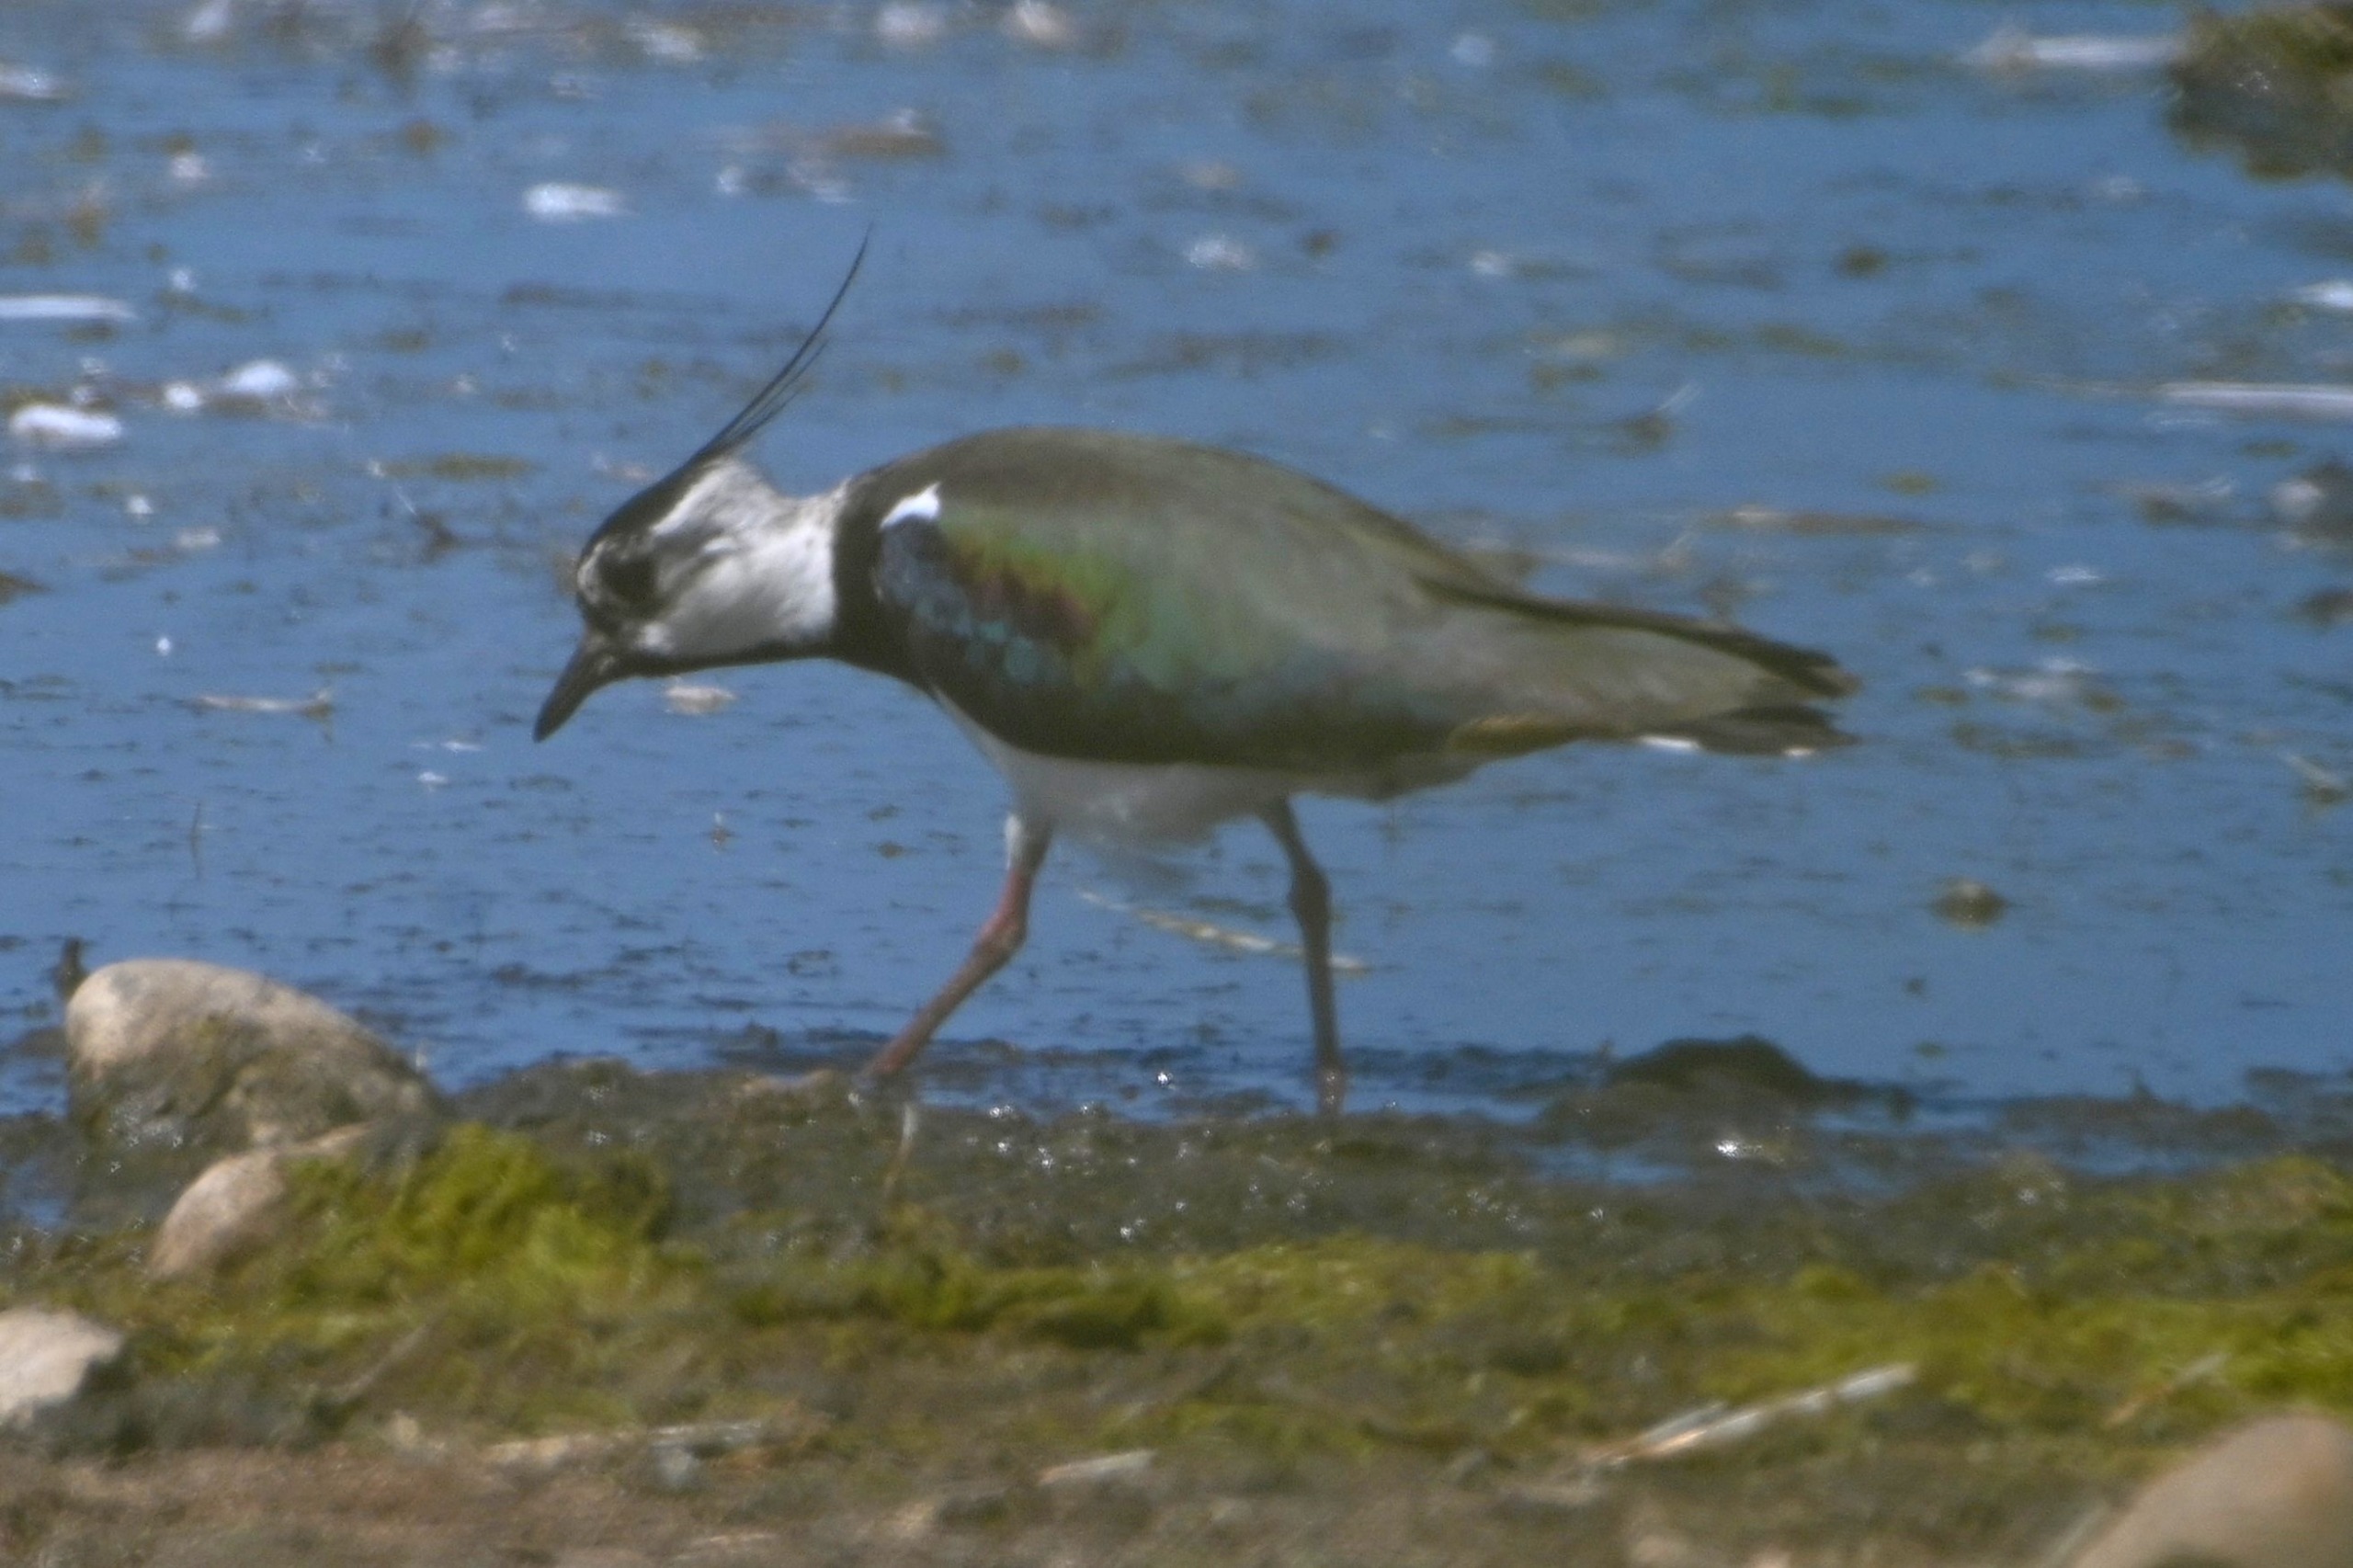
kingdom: Animalia
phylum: Chordata
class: Aves
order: Charadriiformes
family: Charadriidae
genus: Vanellus
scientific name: Vanellus vanellus
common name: Vibe
